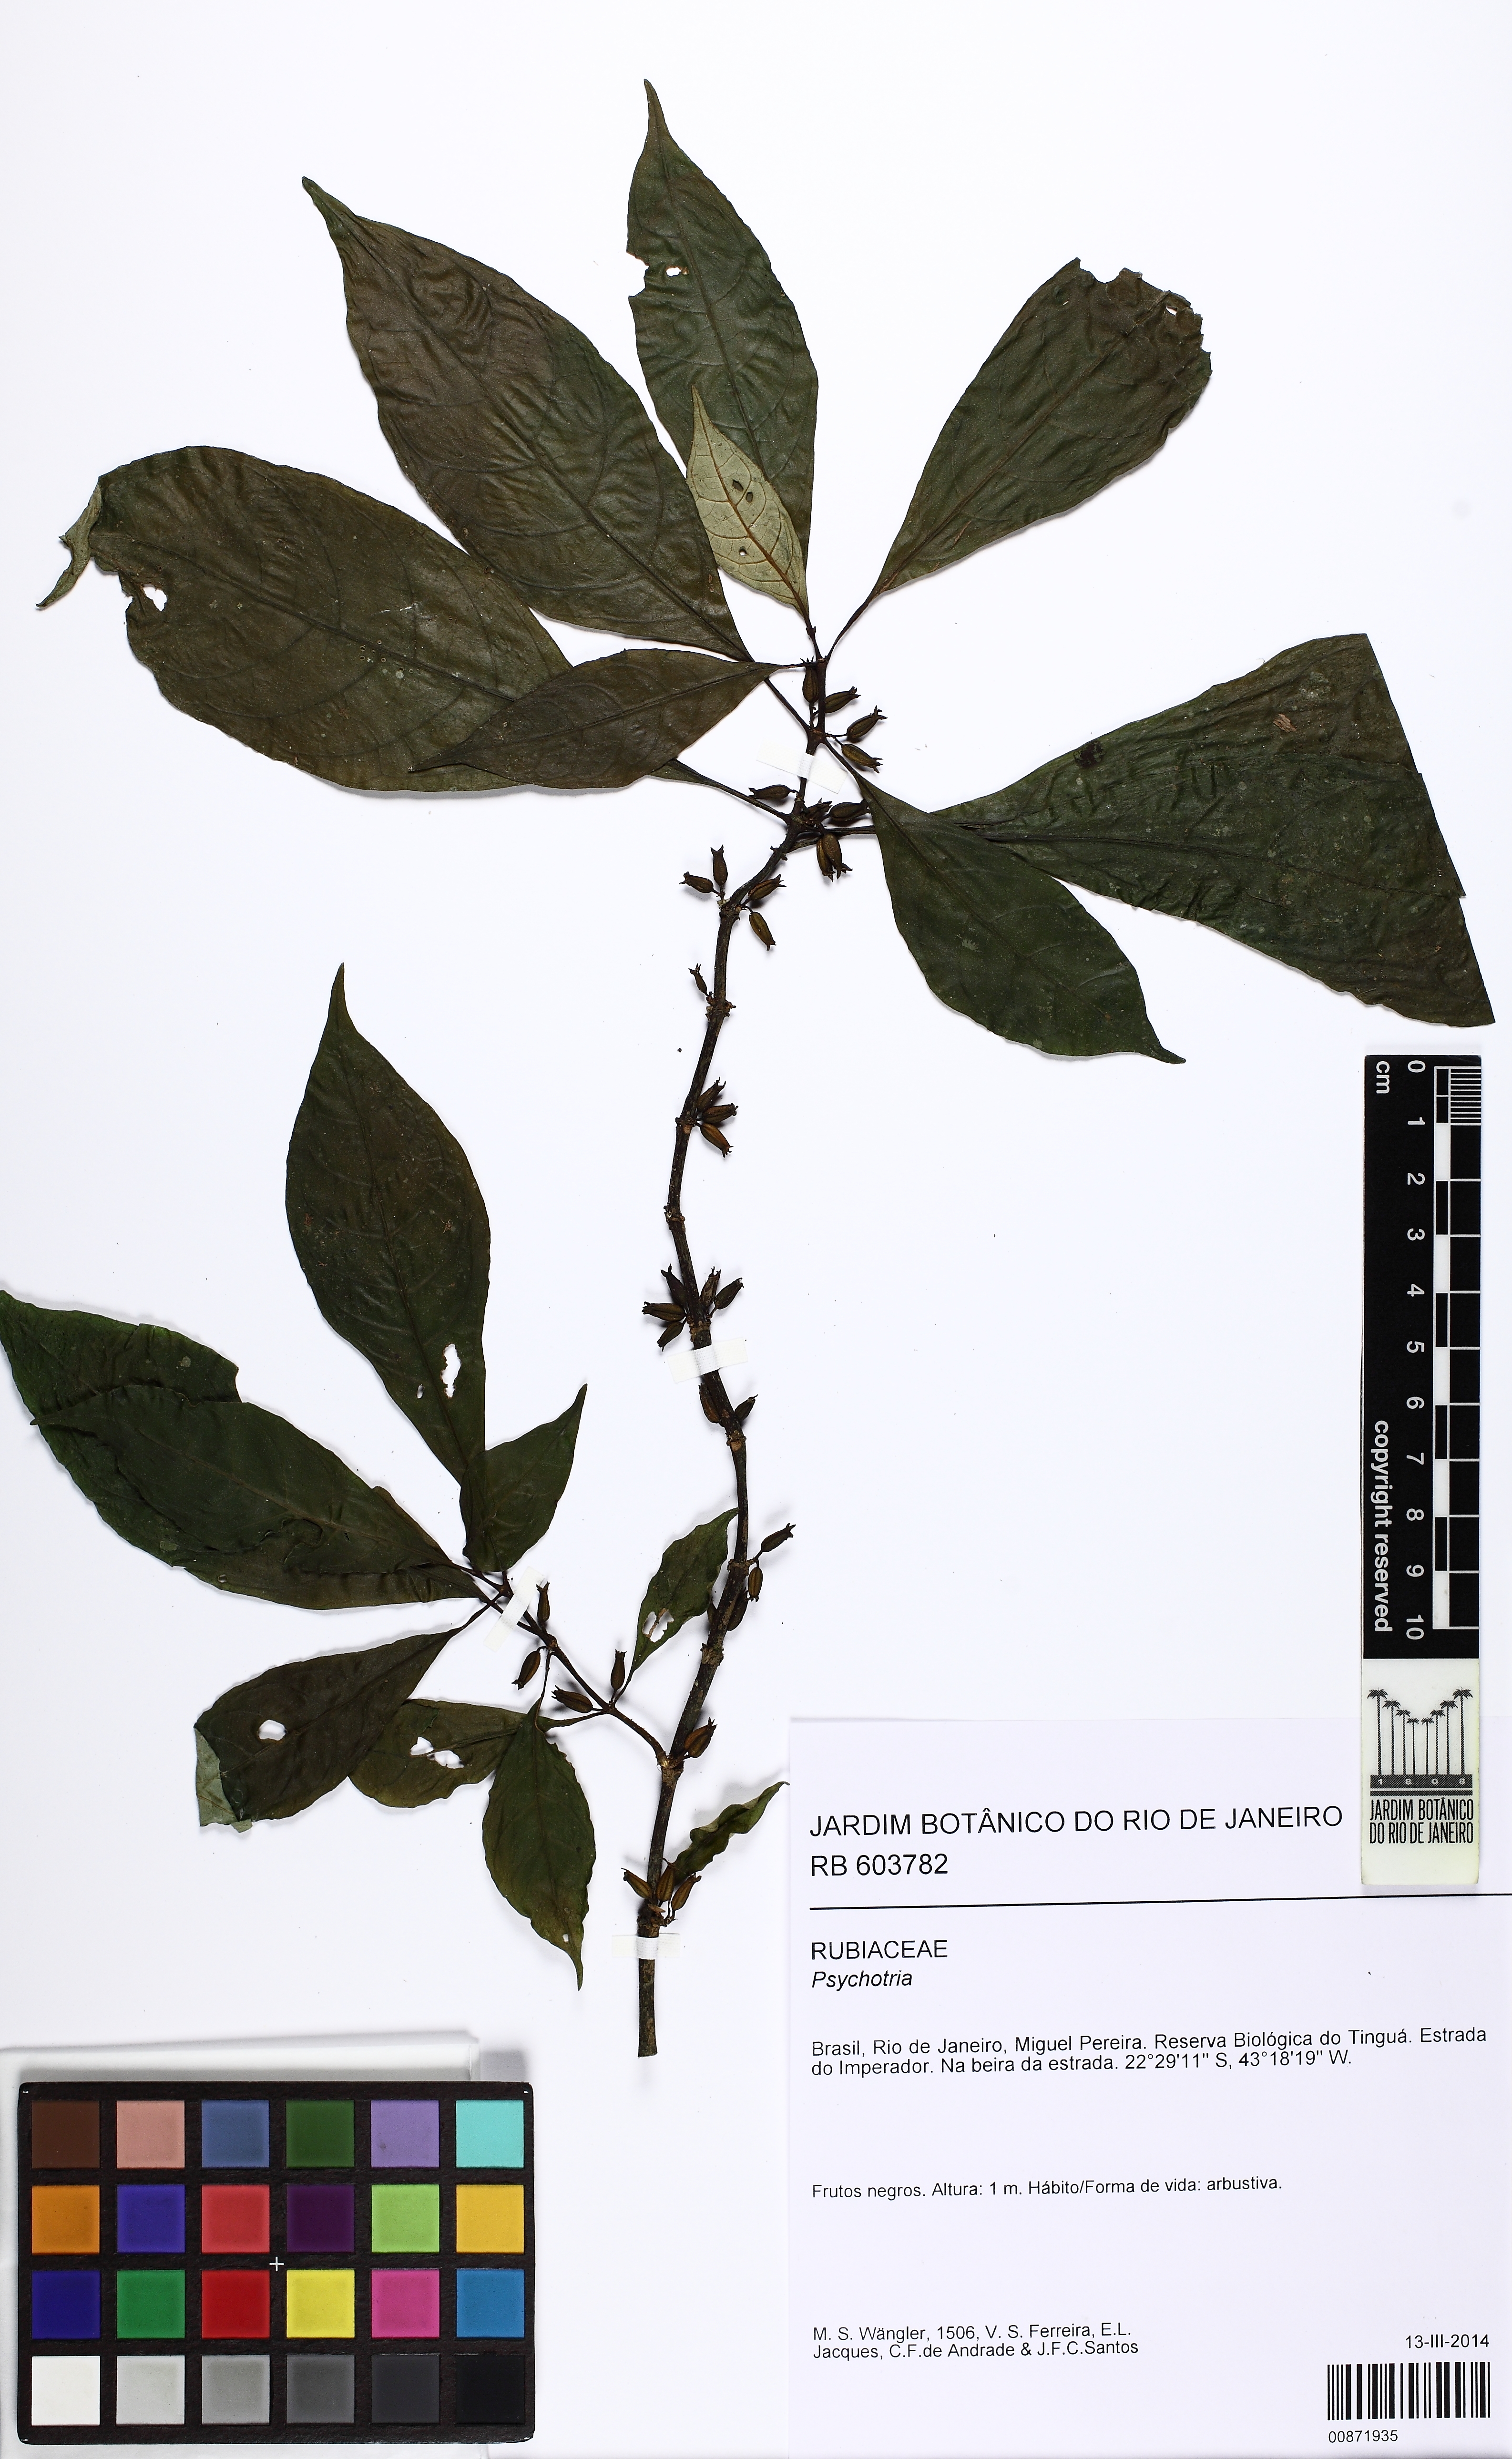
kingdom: Plantae
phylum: Tracheophyta
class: Magnoliopsida
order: Gentianales
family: Rubiaceae
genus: Hoffmannia
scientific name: Hoffmannia peckii
